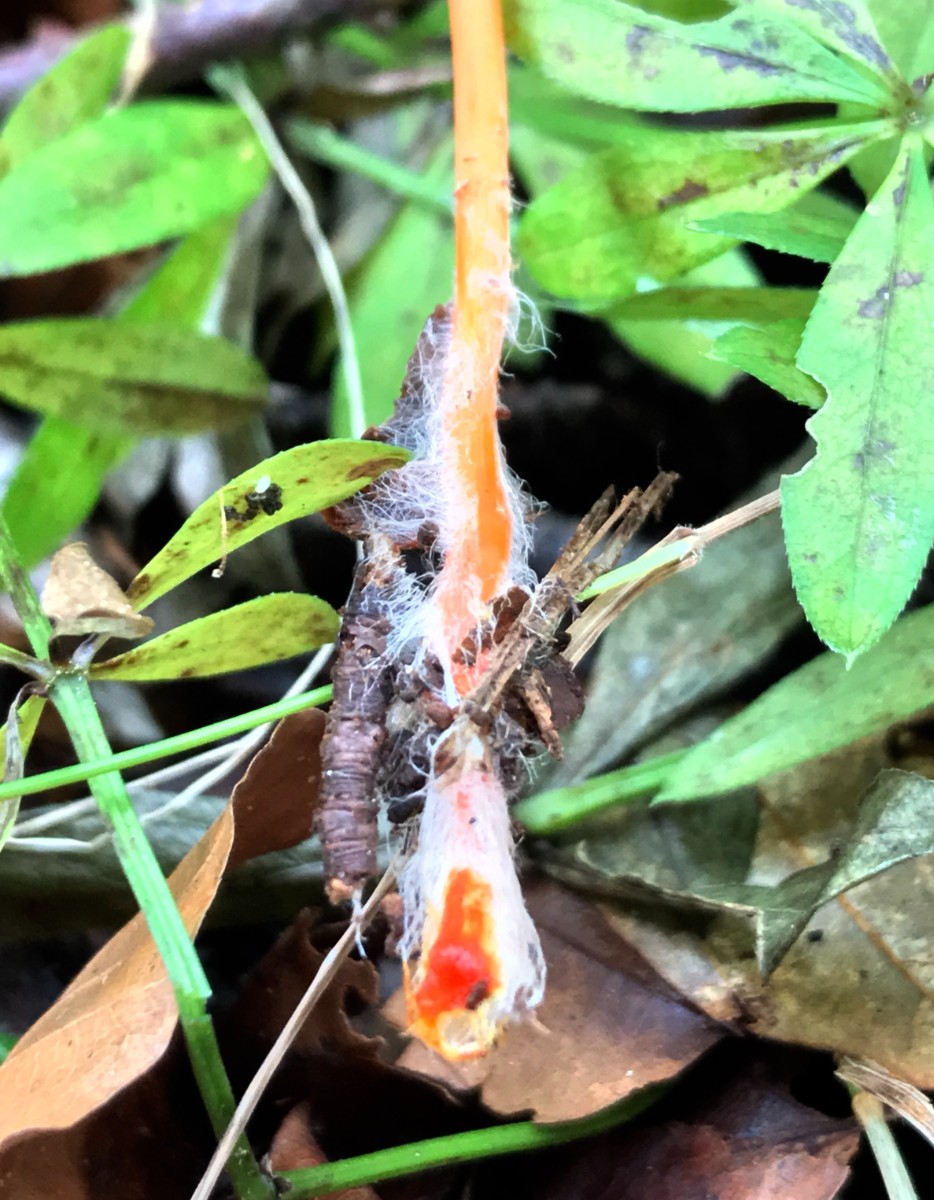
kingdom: Fungi
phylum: Basidiomycota
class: Agaricomycetes
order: Agaricales
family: Mycenaceae
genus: Mycena
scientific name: Mycena crocata
